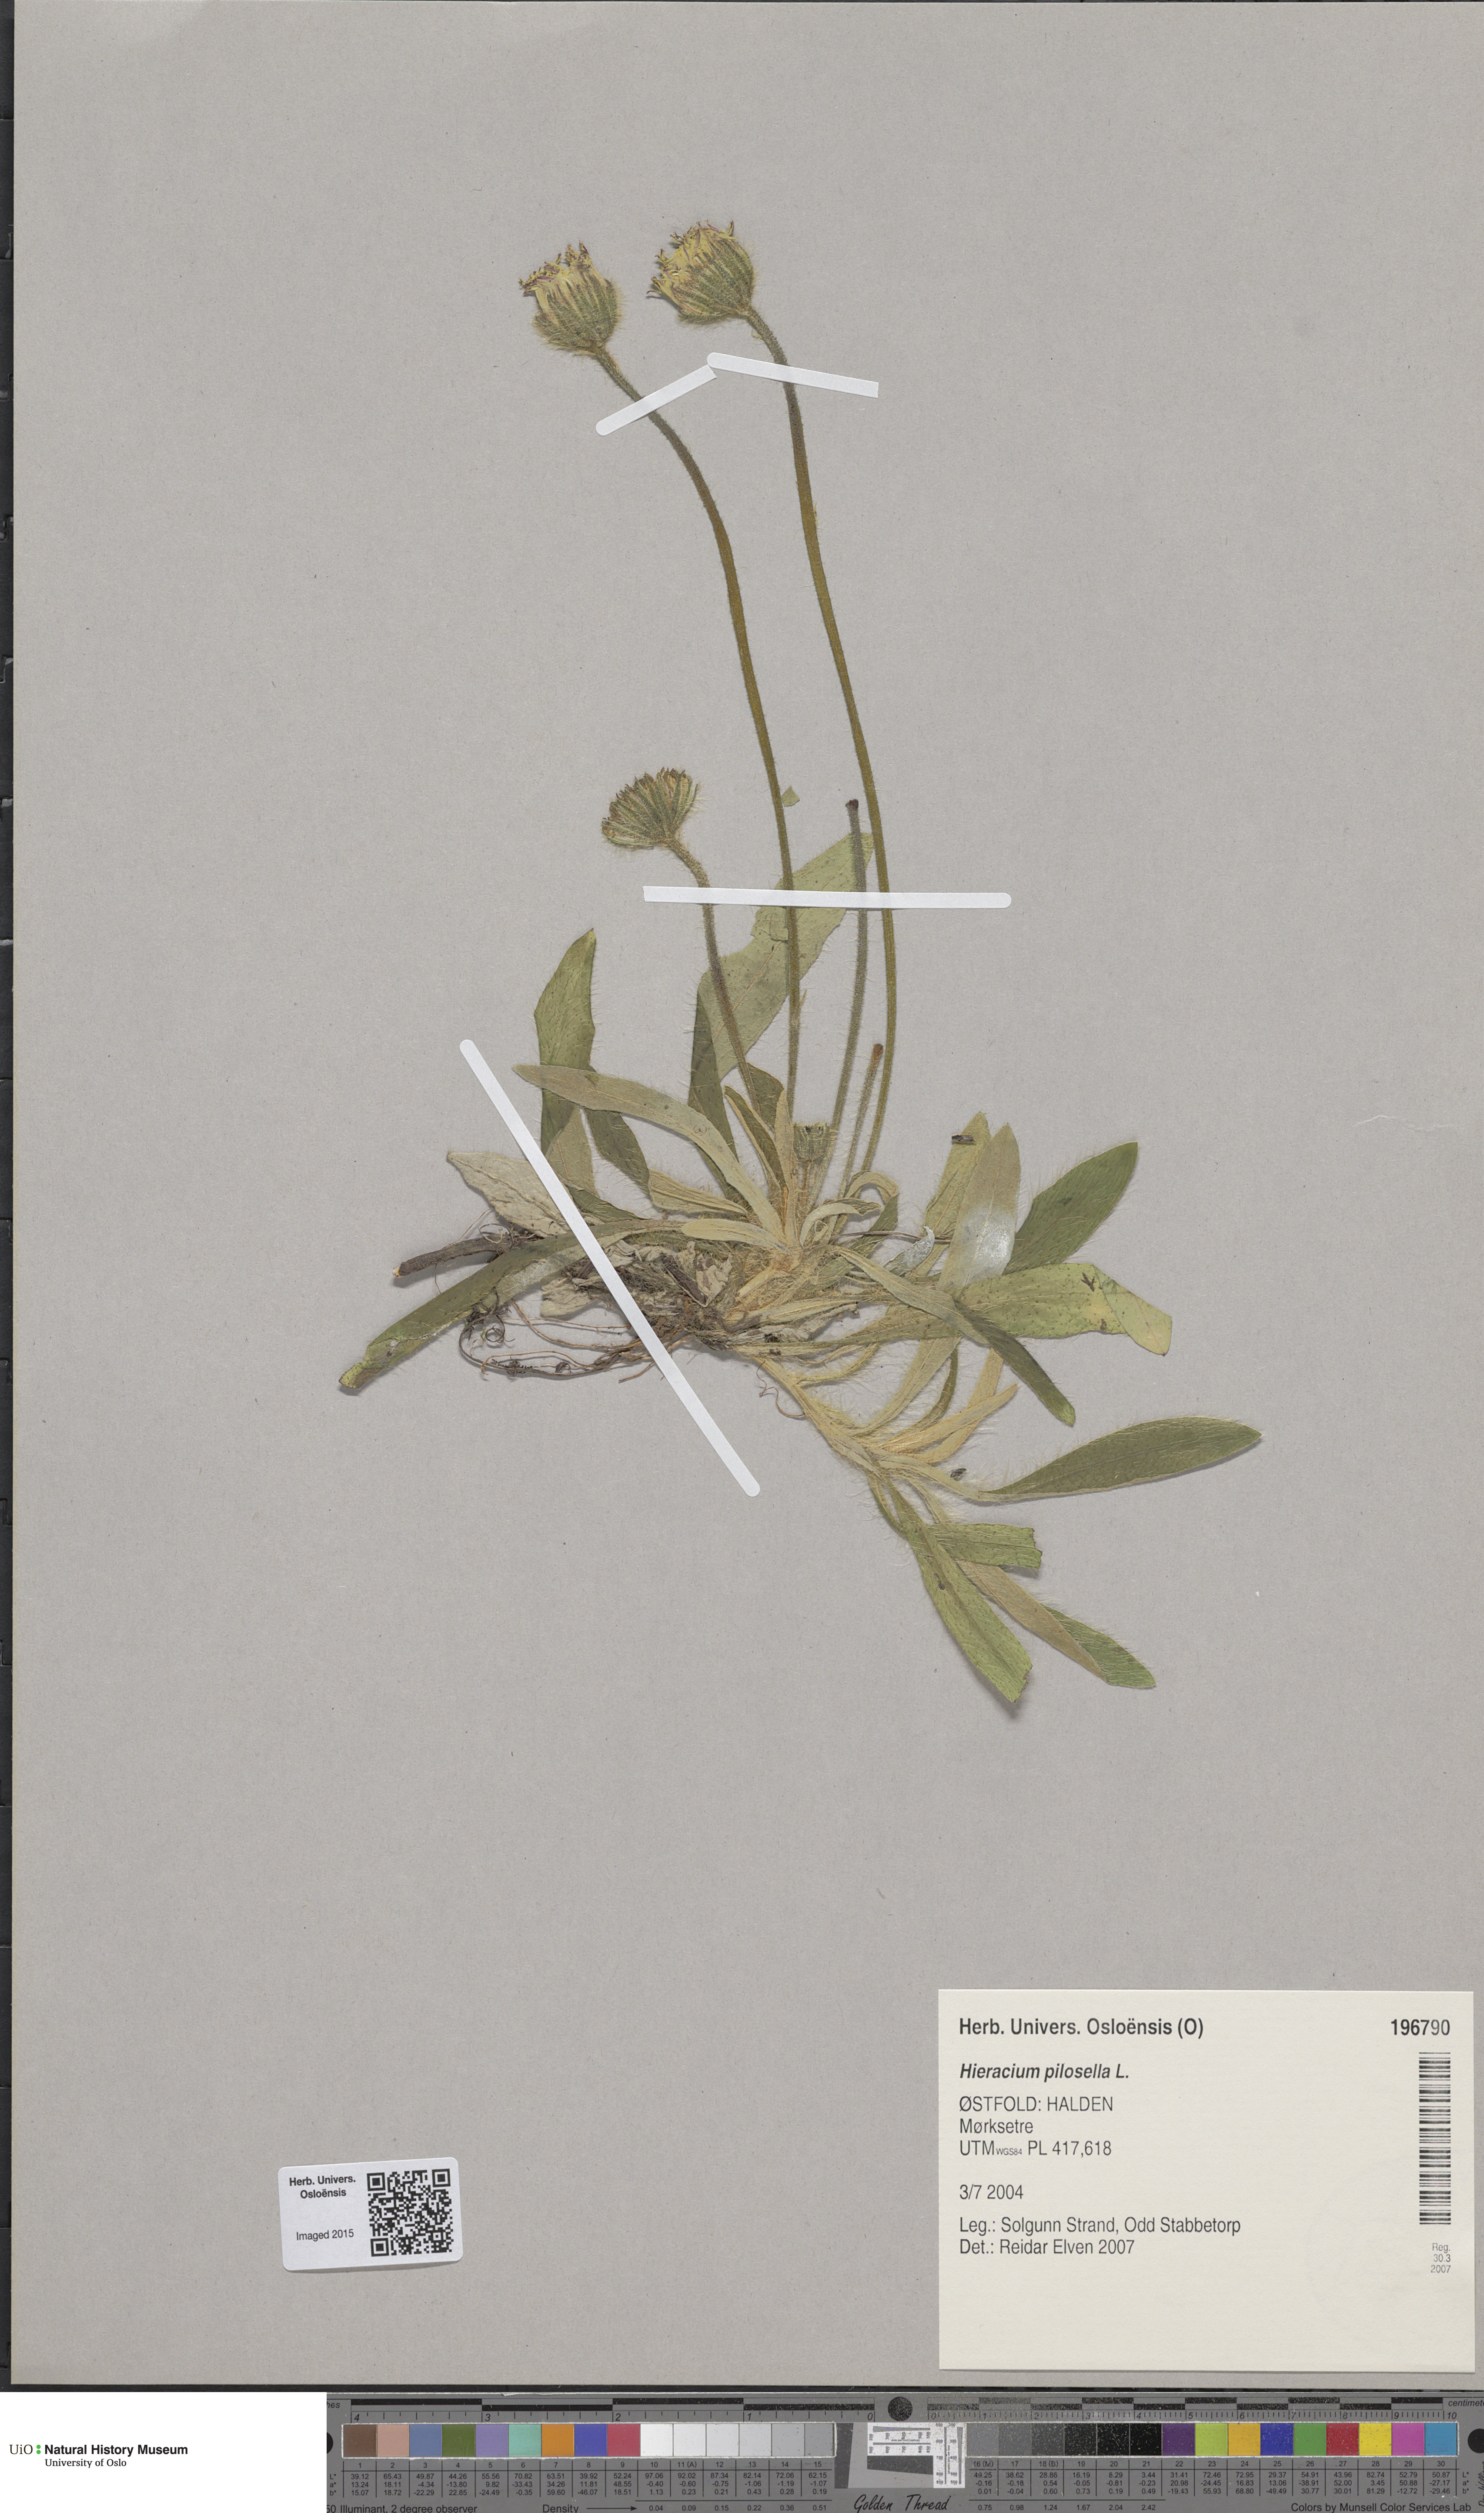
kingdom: Plantae
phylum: Tracheophyta
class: Magnoliopsida
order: Asterales
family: Asteraceae
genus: Pilosella
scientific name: Pilosella officinarum
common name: Mouse-ear hawkweed
